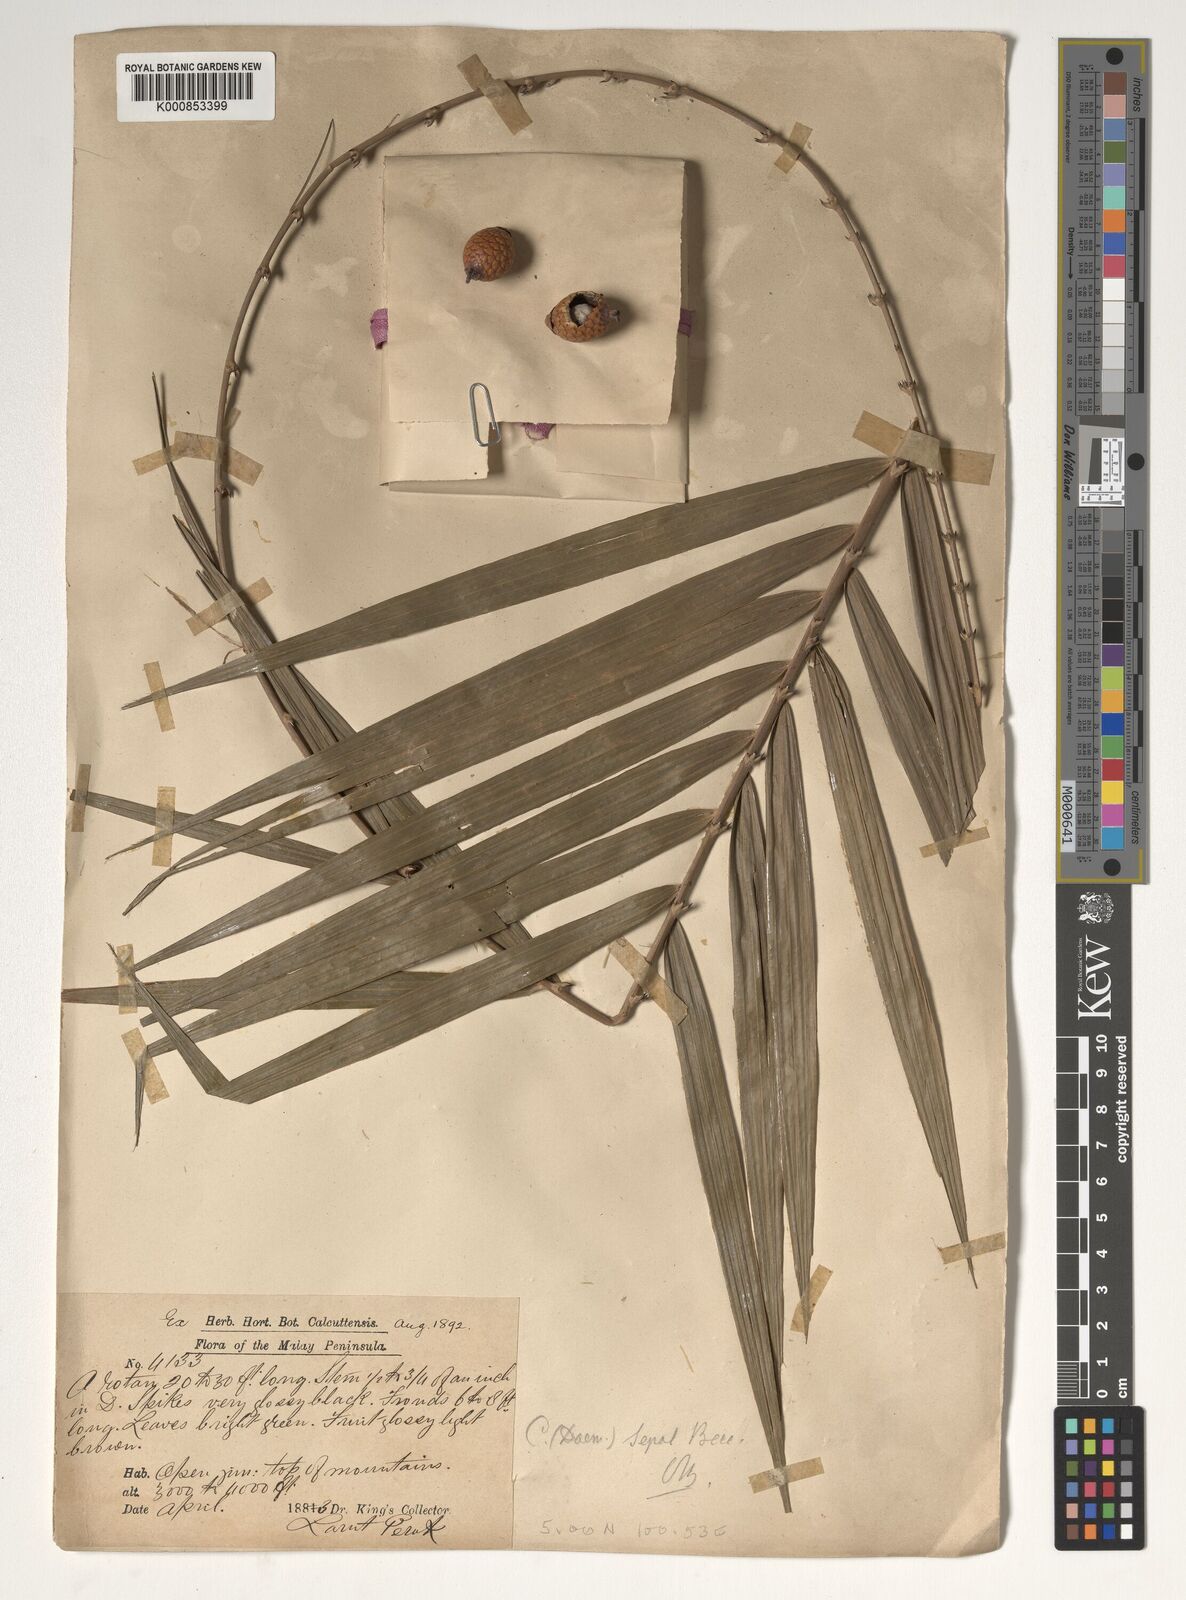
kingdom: Plantae
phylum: Tracheophyta
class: Liliopsida
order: Arecales
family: Arecaceae
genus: Calamus
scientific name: Calamus melanochaetes
